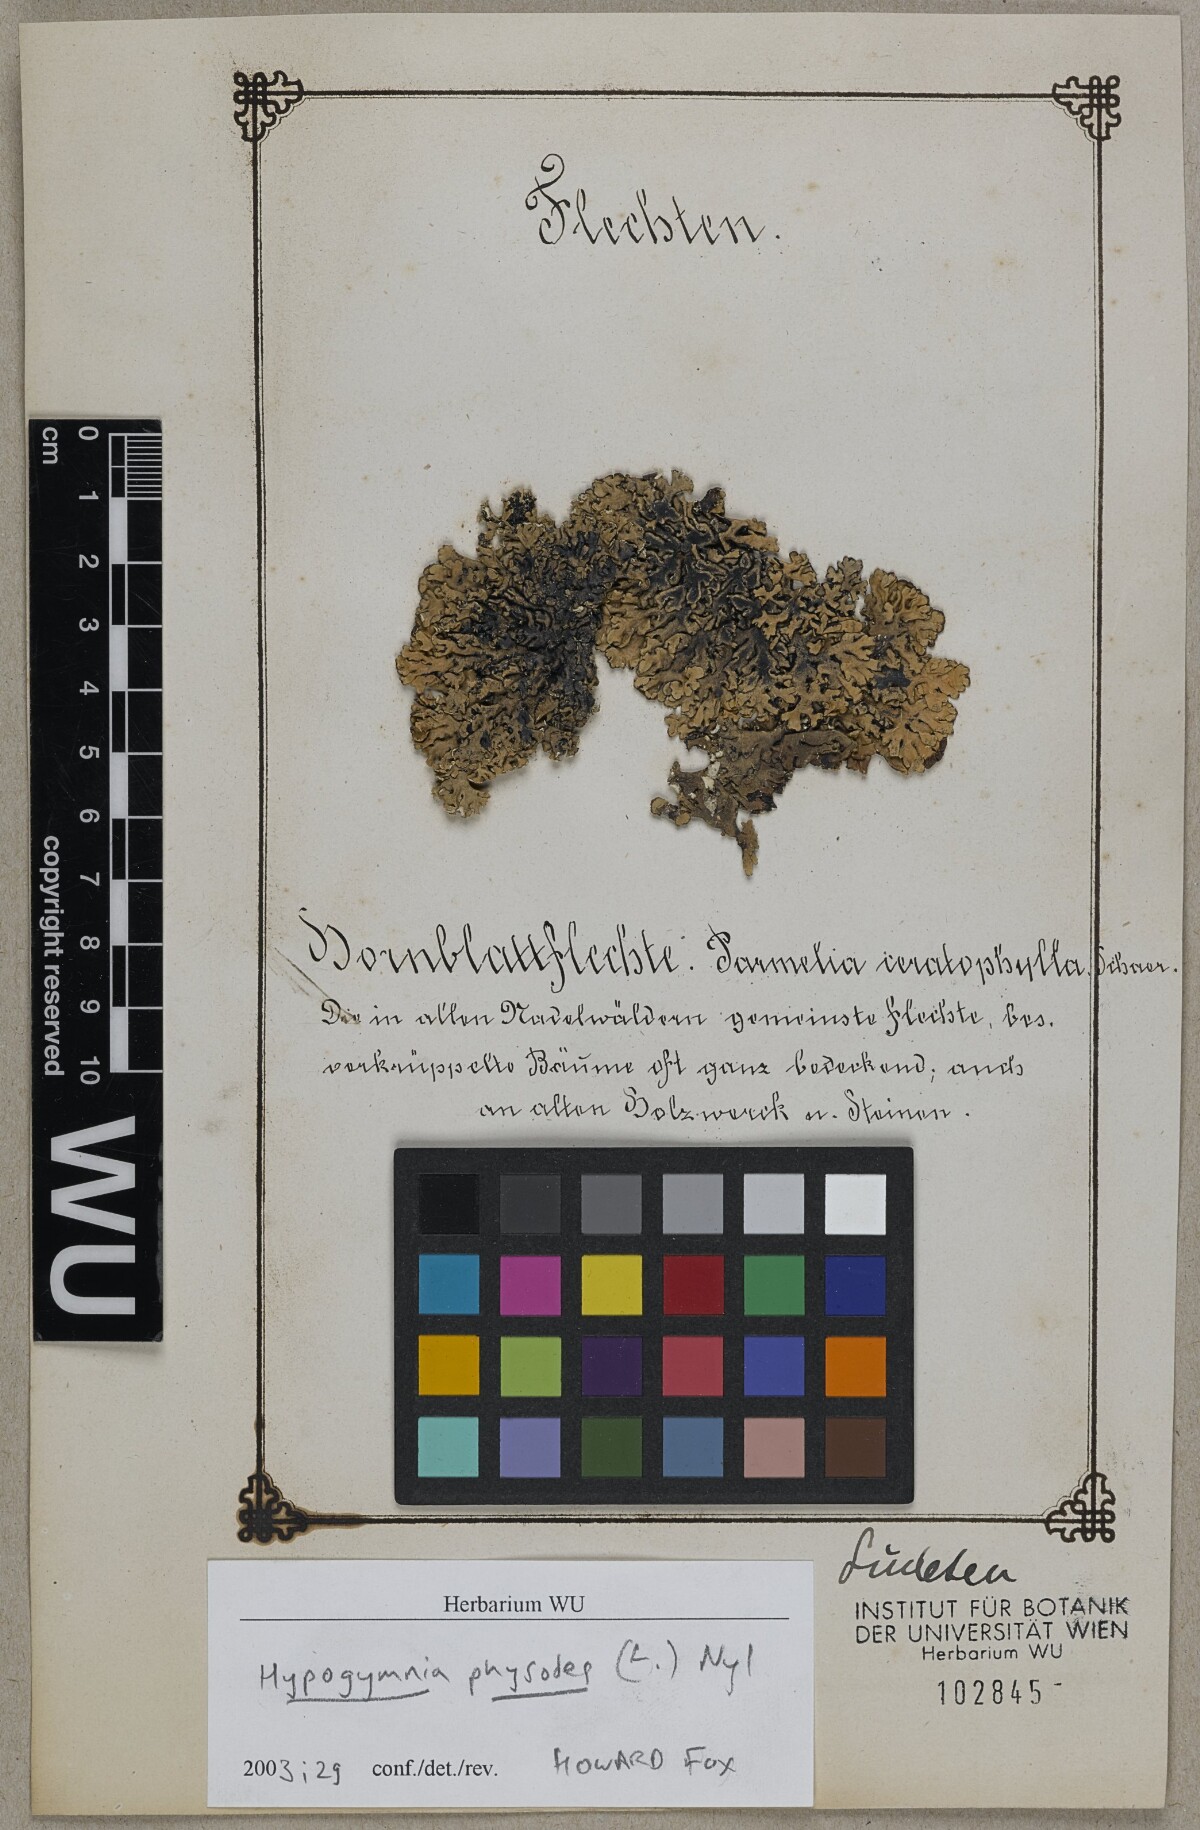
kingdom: Fungi
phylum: Ascomycota
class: Lecanoromycetes
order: Lecanorales
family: Parmeliaceae
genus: Hypogymnia
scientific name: Hypogymnia physodes
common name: Dark crottle
